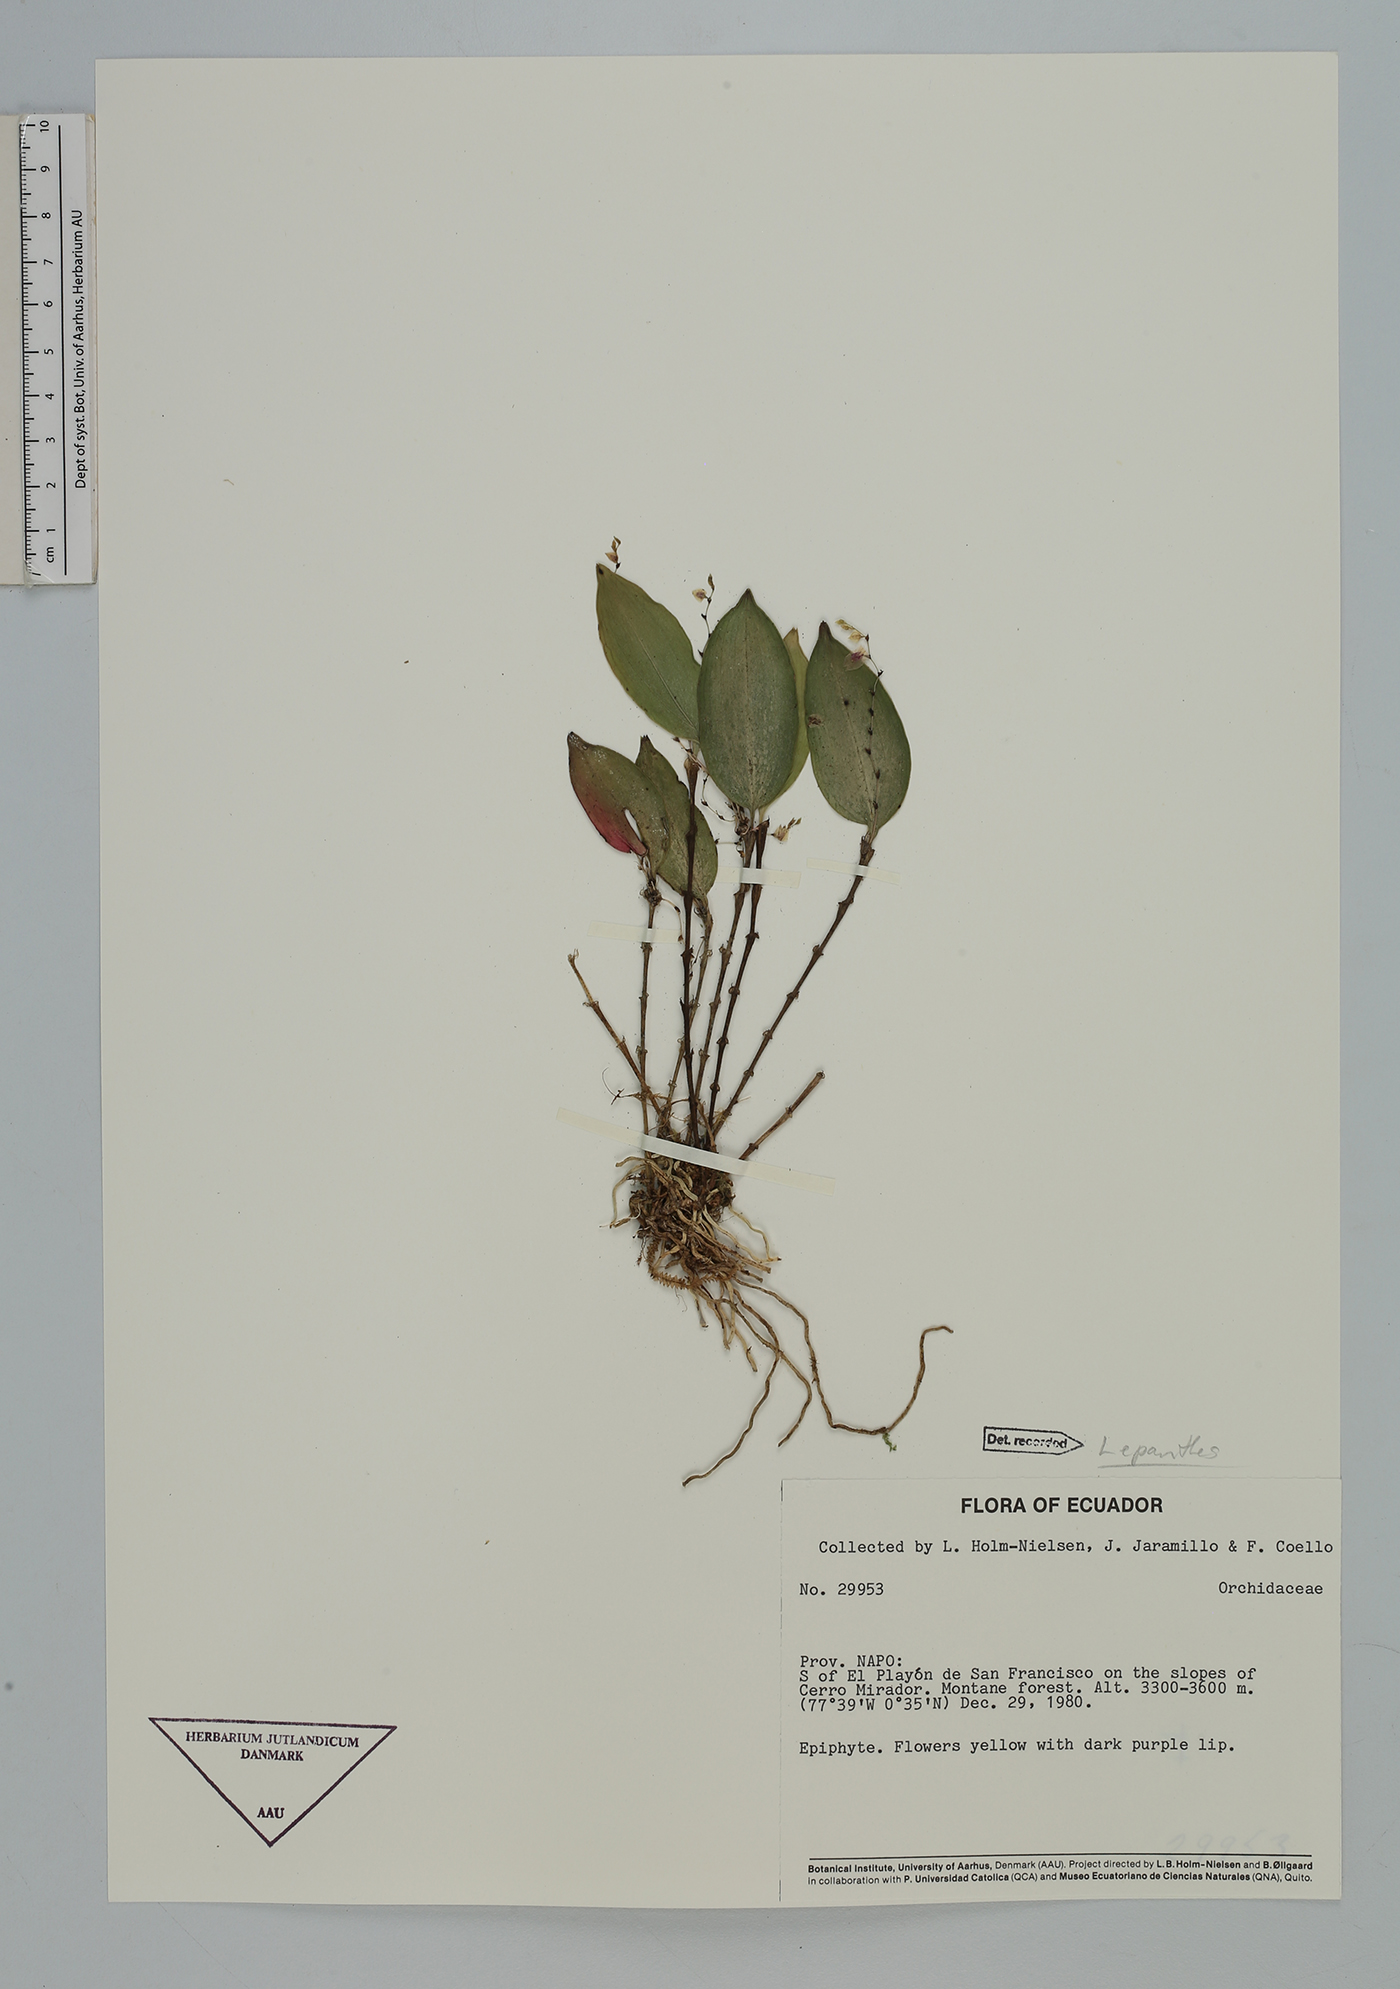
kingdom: Plantae
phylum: Tracheophyta
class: Liliopsida
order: Asparagales
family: Orchidaceae
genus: Lepanthes
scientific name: Lepanthes
